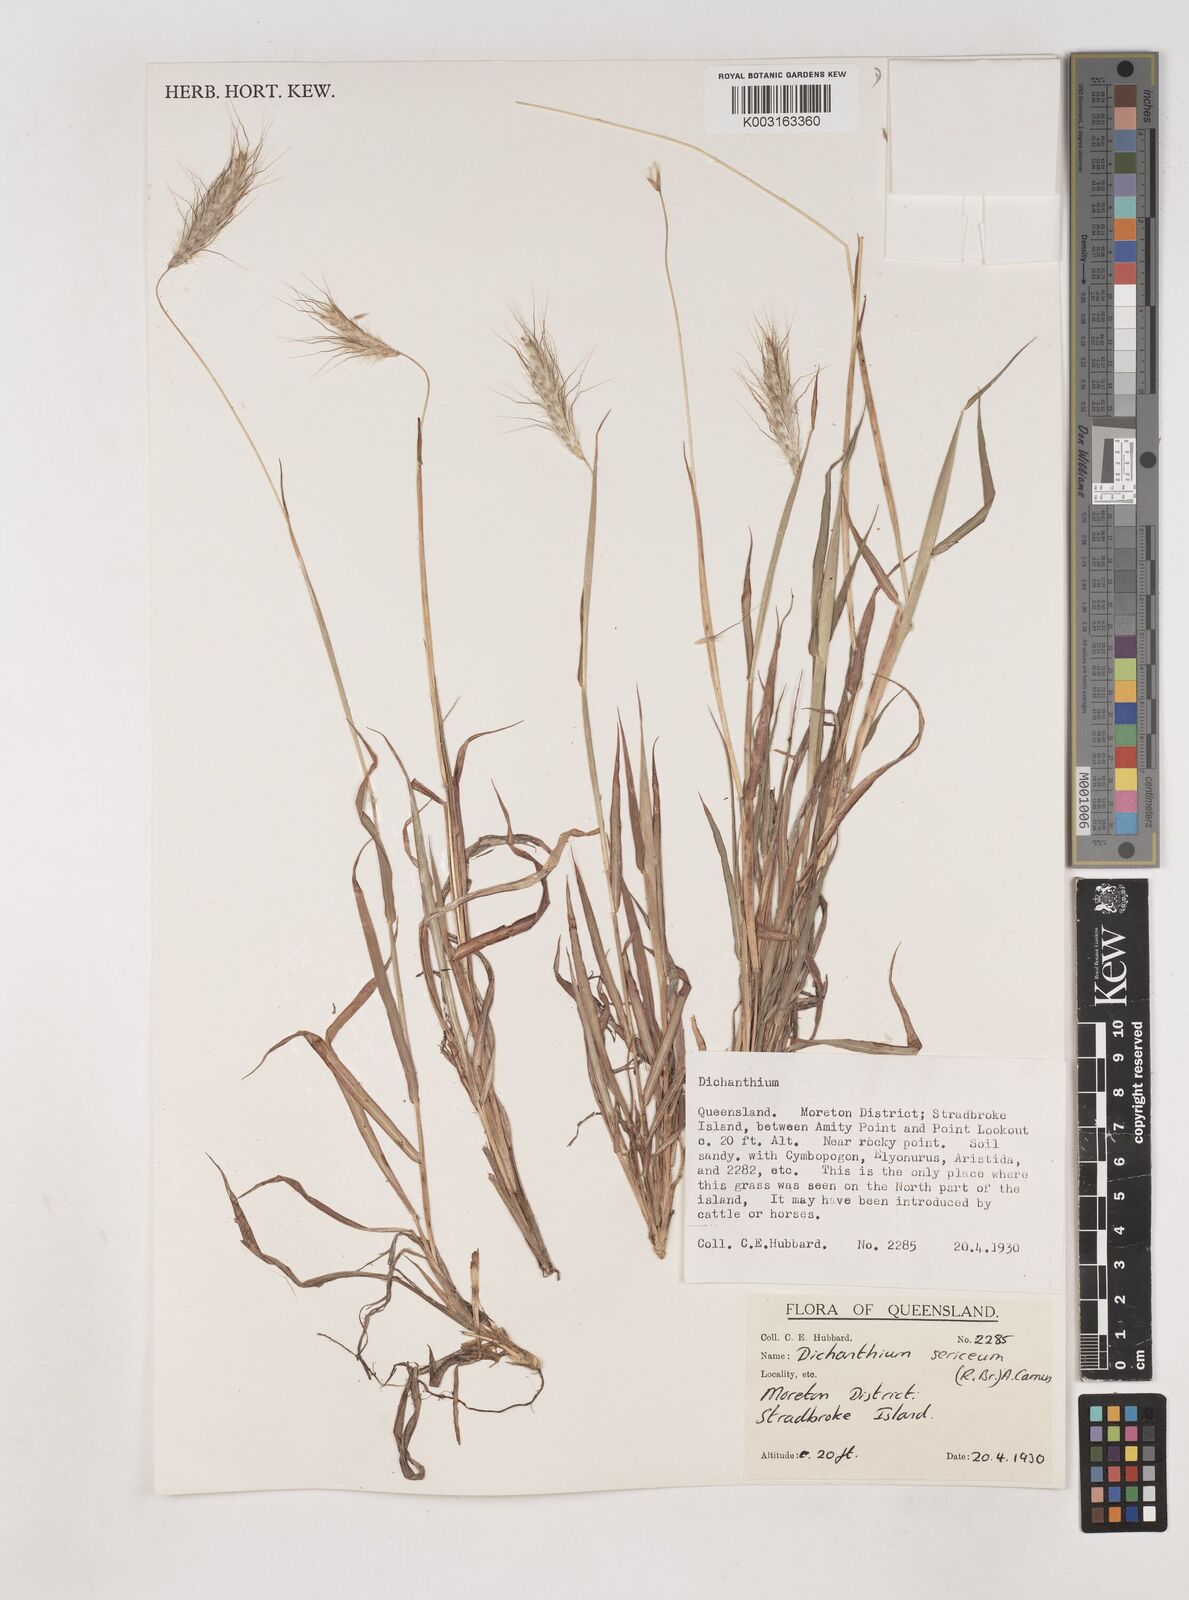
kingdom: Plantae
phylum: Tracheophyta
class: Liliopsida
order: Poales
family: Poaceae
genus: Dichanthium
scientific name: Dichanthium sericeum
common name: Silky bluestem
